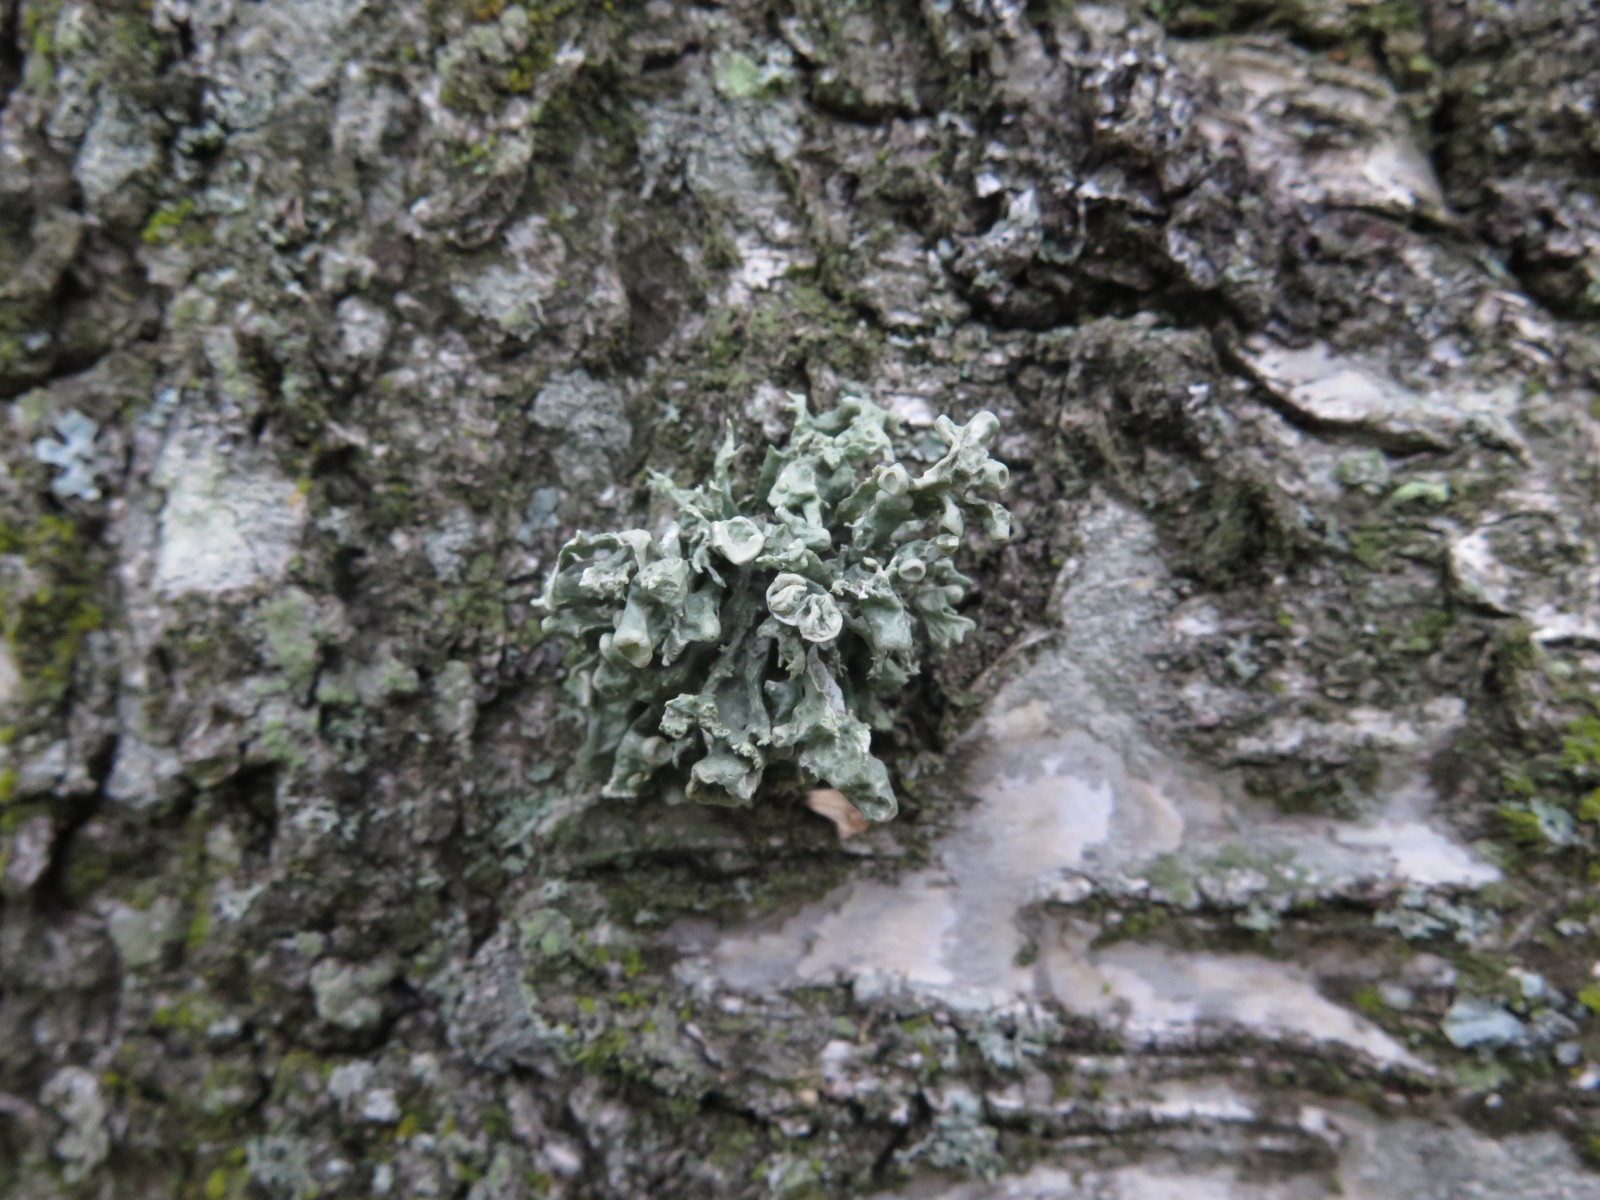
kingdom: Fungi
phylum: Ascomycota
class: Lecanoromycetes
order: Lecanorales
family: Ramalinaceae
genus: Ramalina
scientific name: Ramalina fastigiata
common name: tue-grenlav
